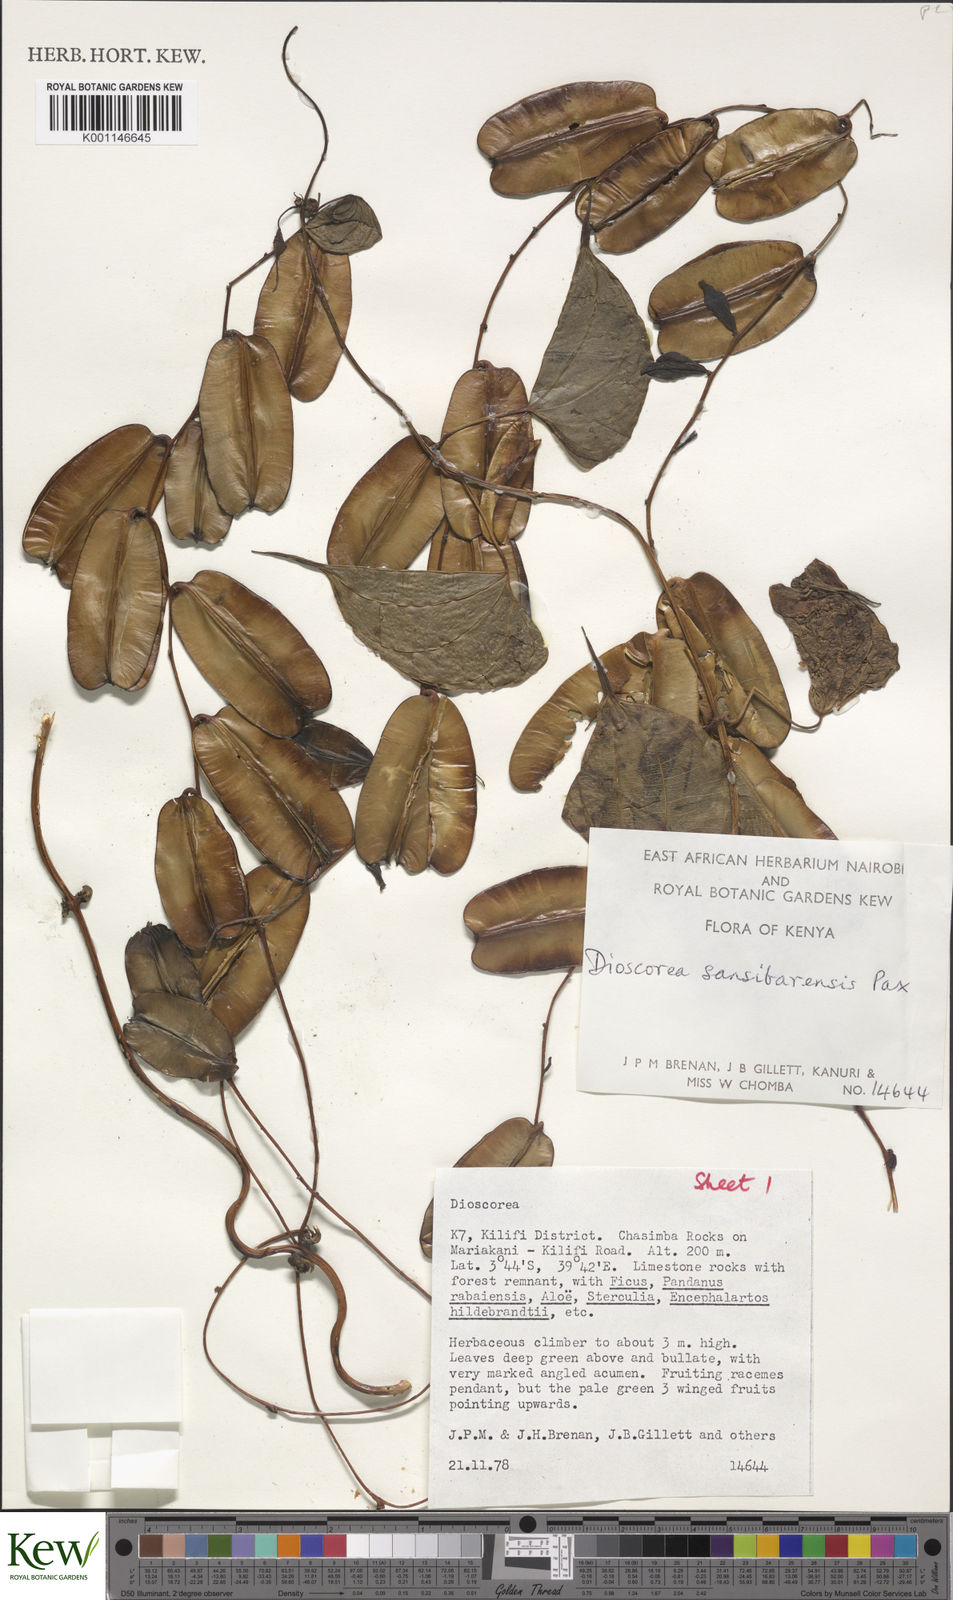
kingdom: Plantae
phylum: Tracheophyta
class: Liliopsida
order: Dioscoreales
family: Dioscoreaceae
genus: Dioscorea
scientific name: Dioscorea sansibarensis
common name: Zanzibar yam
